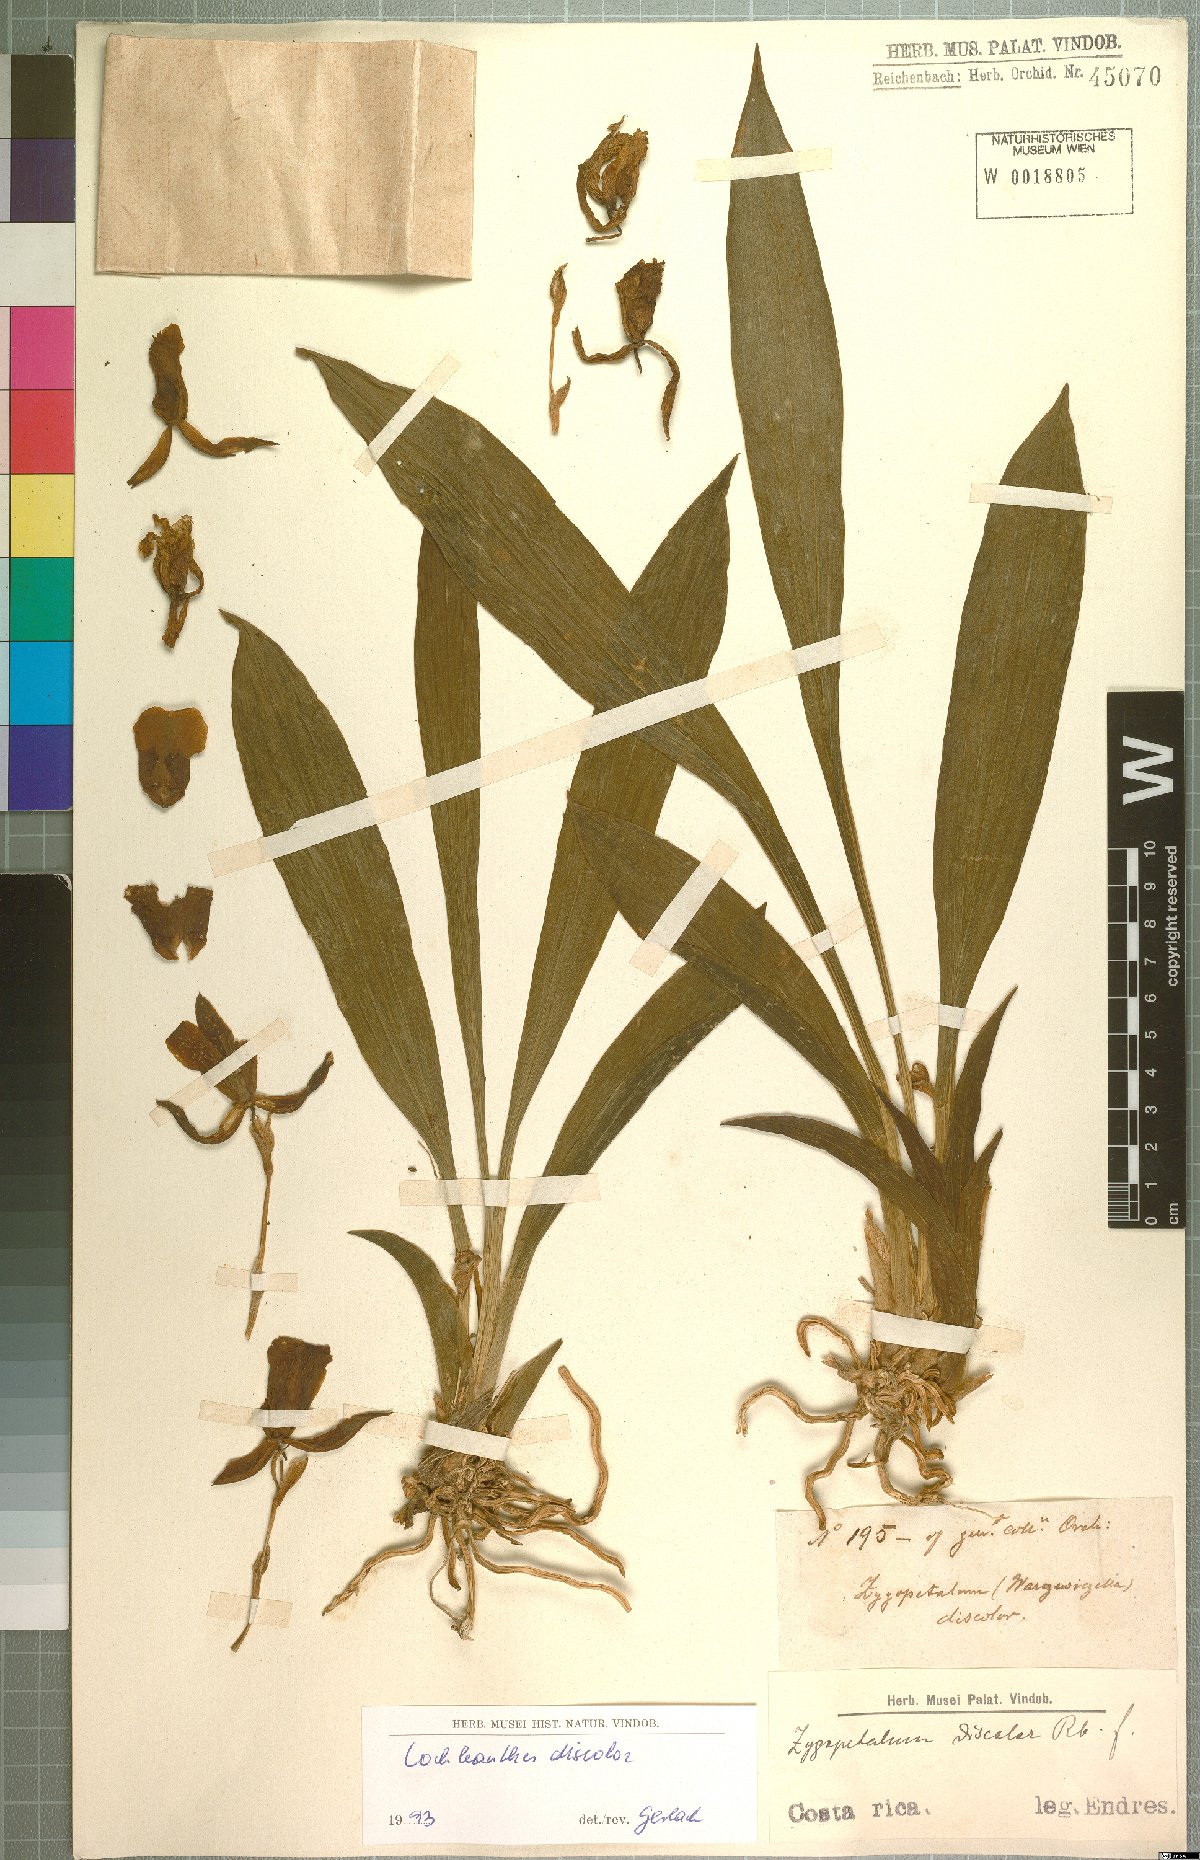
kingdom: Plantae
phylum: Tracheophyta
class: Liliopsida
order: Asparagales
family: Orchidaceae
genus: Warczewiczella
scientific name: Warczewiczella discolor
